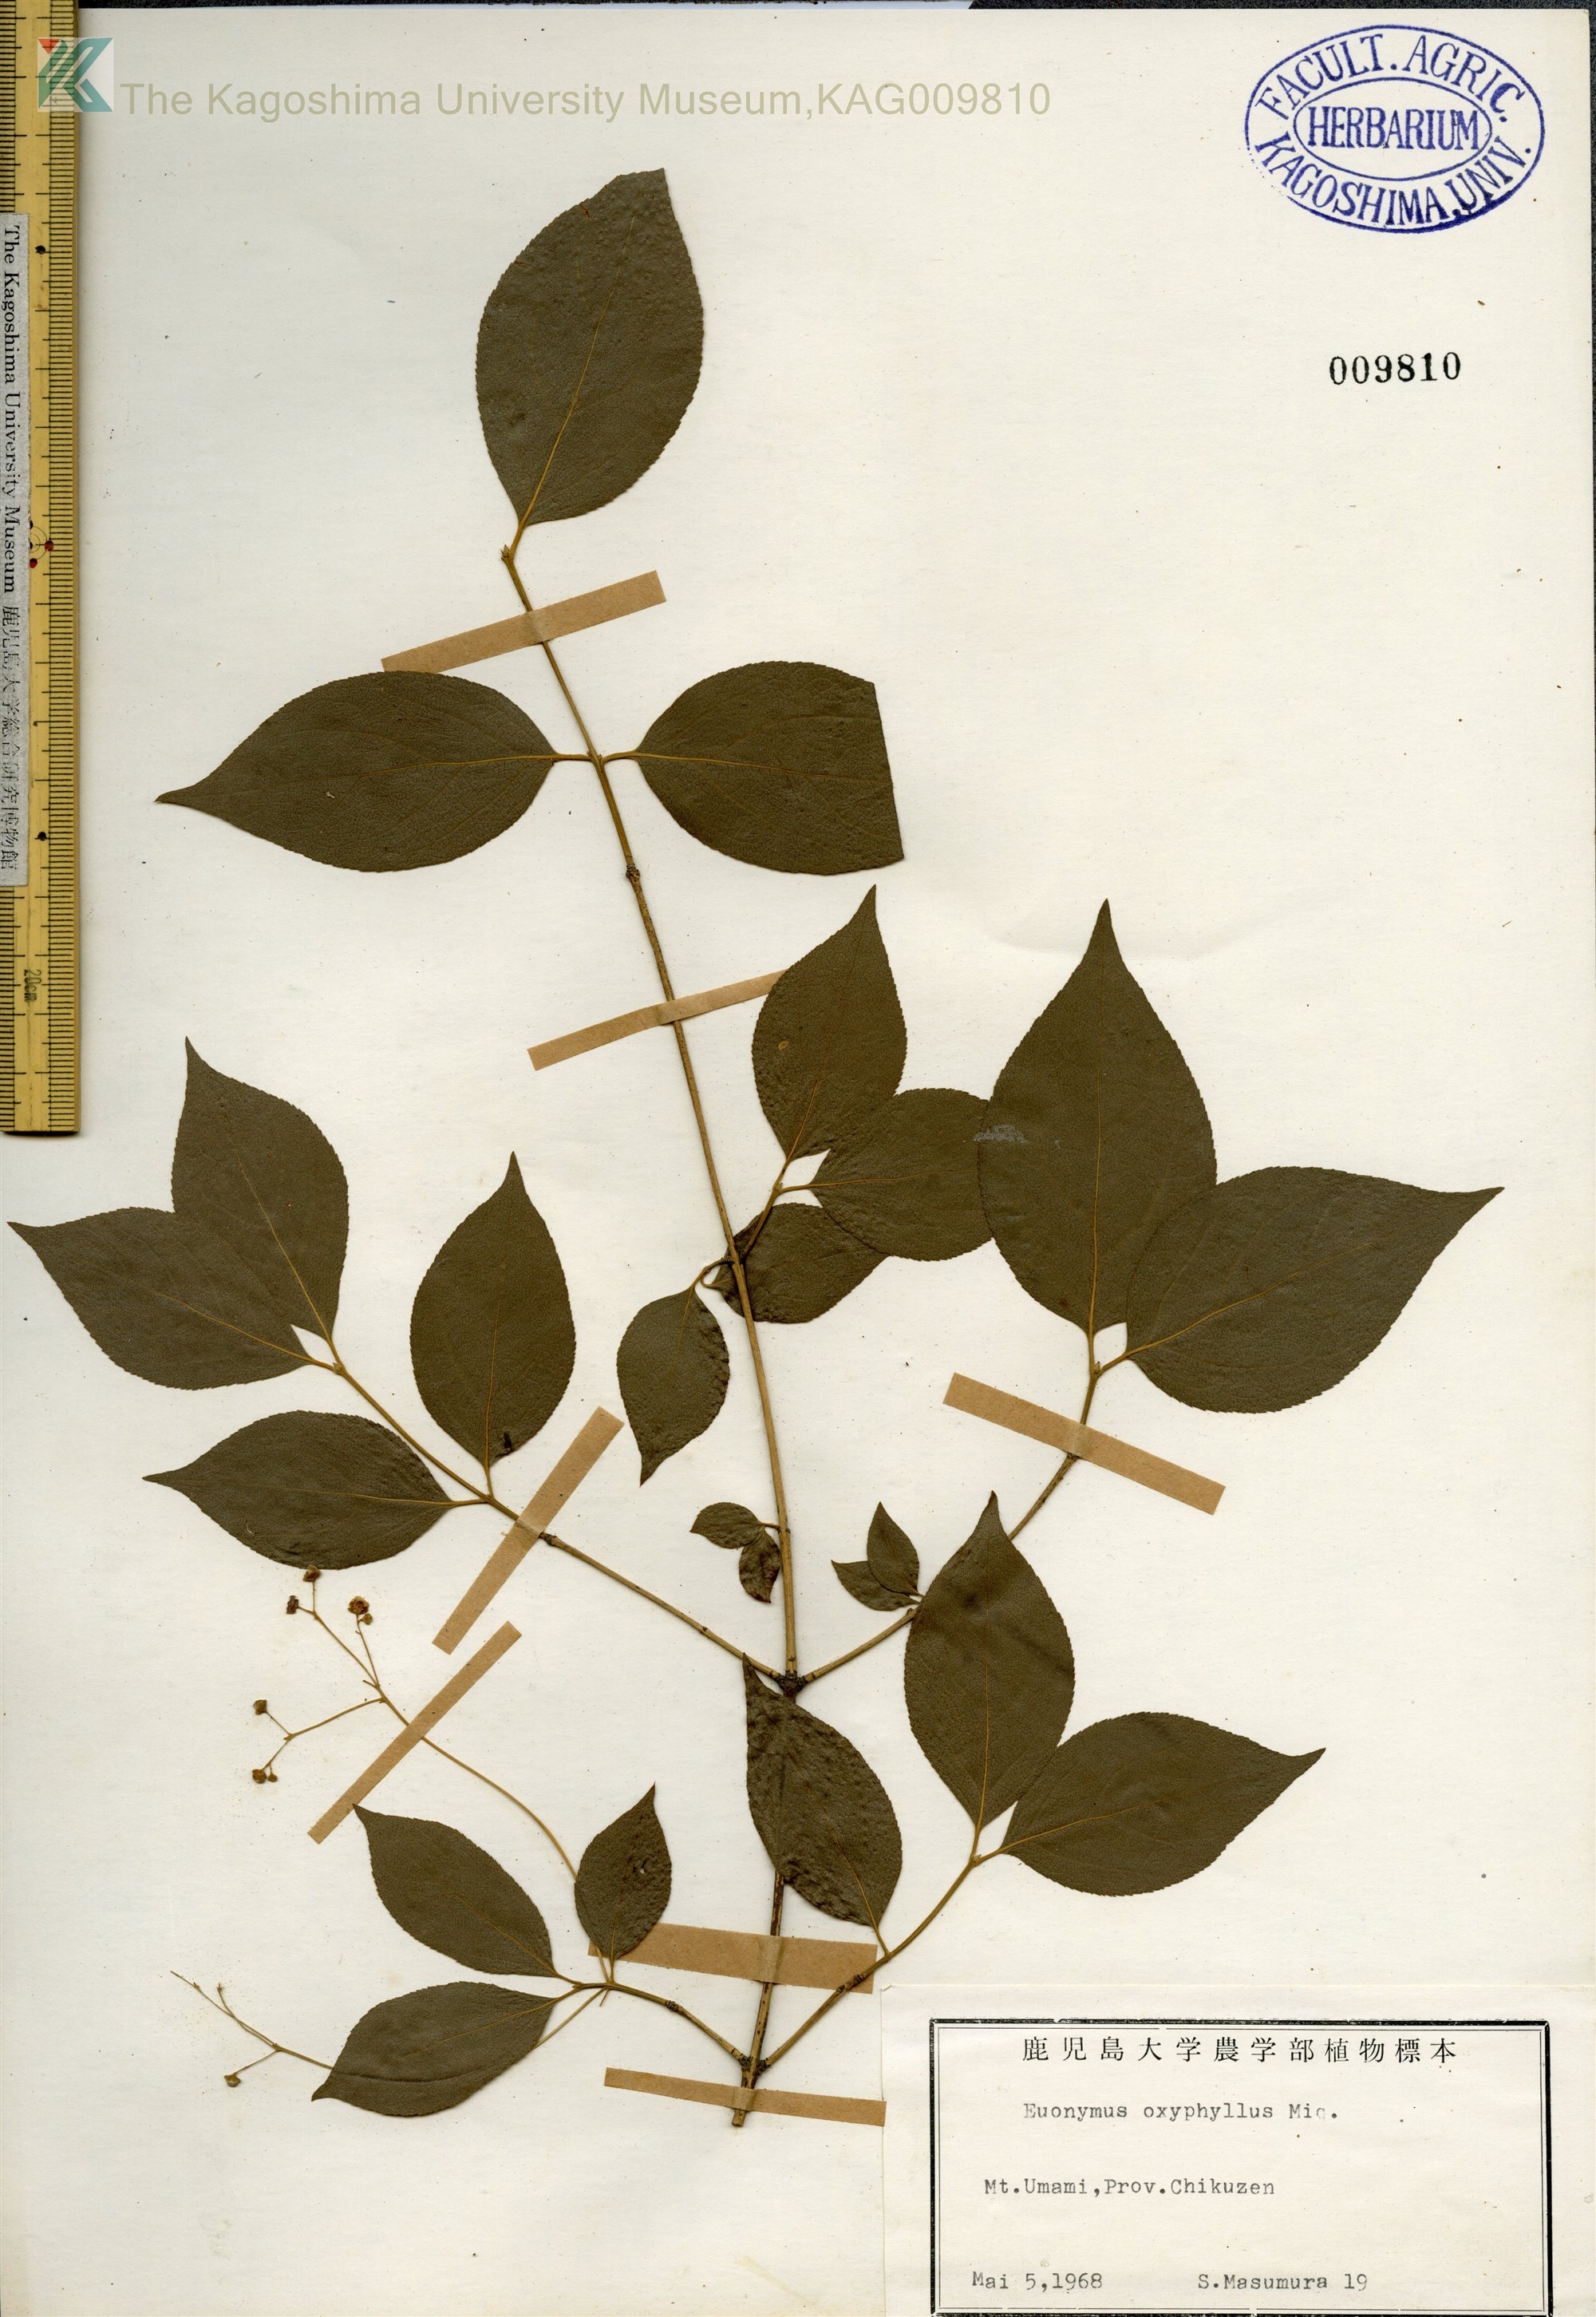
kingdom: Plantae
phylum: Tracheophyta
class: Magnoliopsida
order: Celastrales
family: Celastraceae
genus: Euonymus
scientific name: Euonymus oxyphyllus
